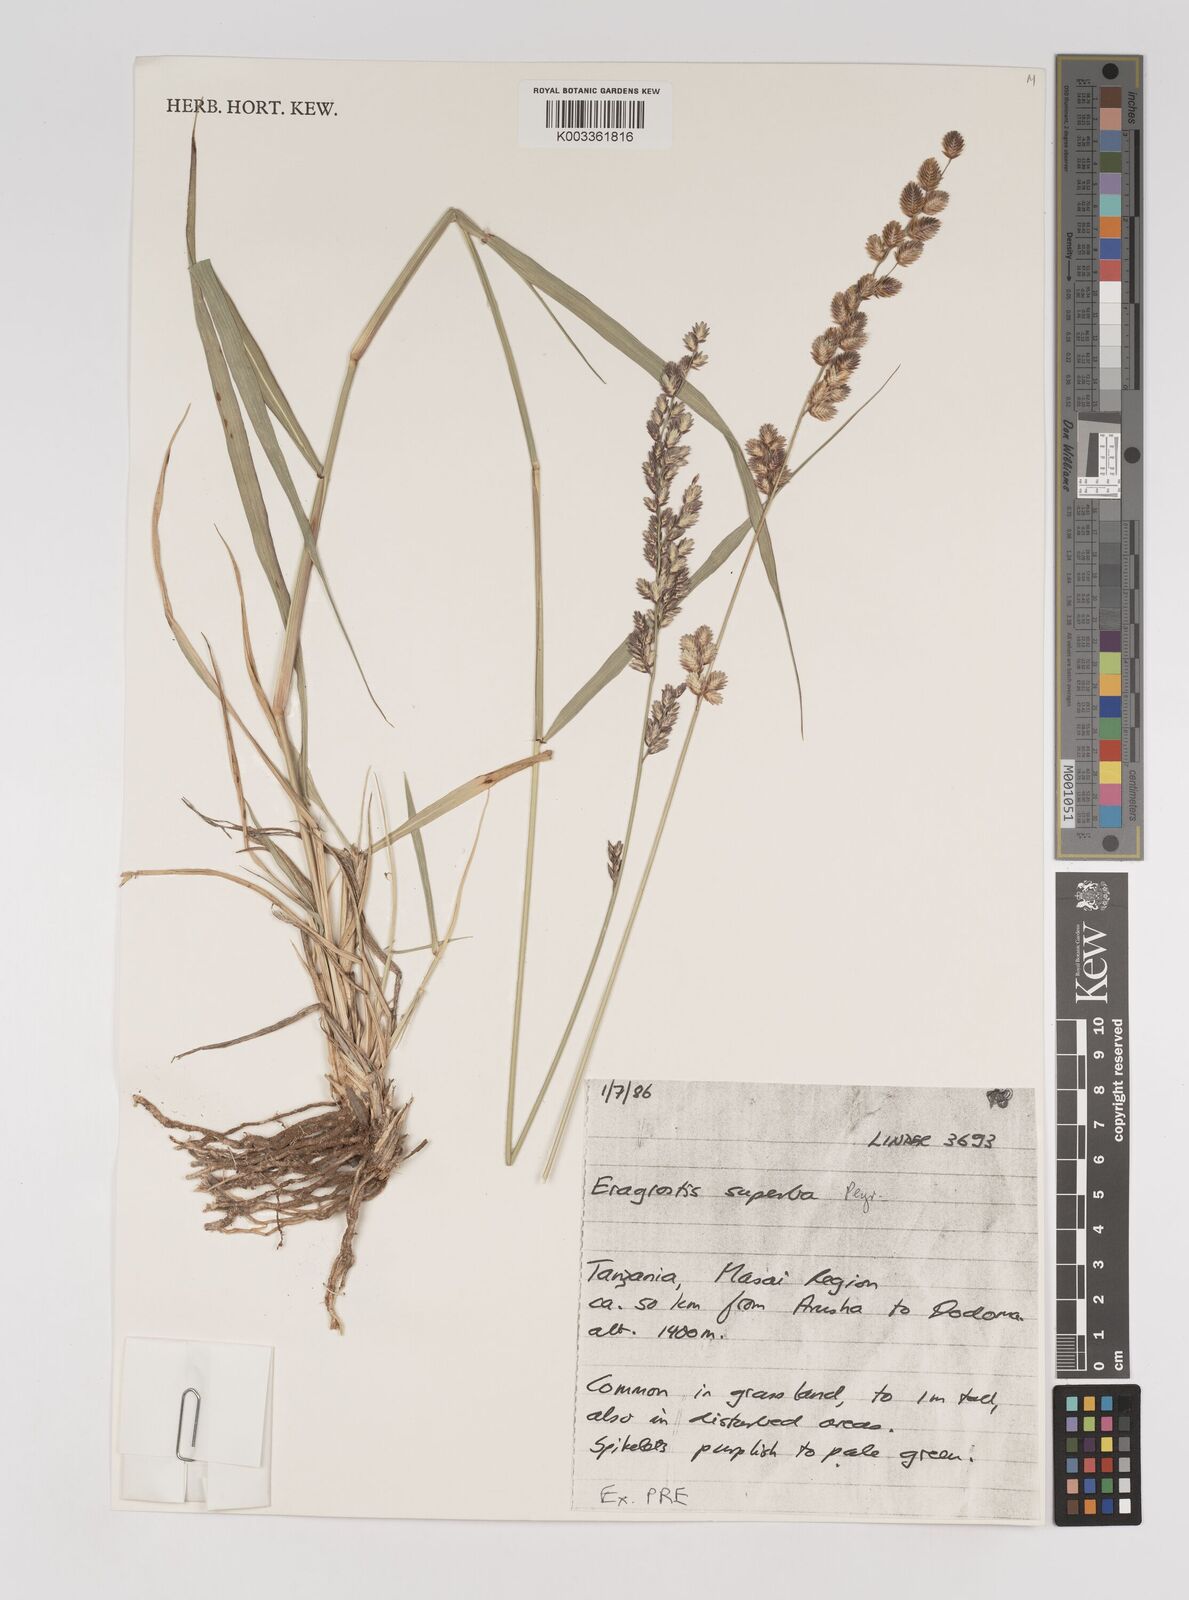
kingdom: Plantae
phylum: Tracheophyta
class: Liliopsida
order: Poales
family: Poaceae
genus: Eragrostis
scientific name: Eragrostis superba
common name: Wilman lovegrass
